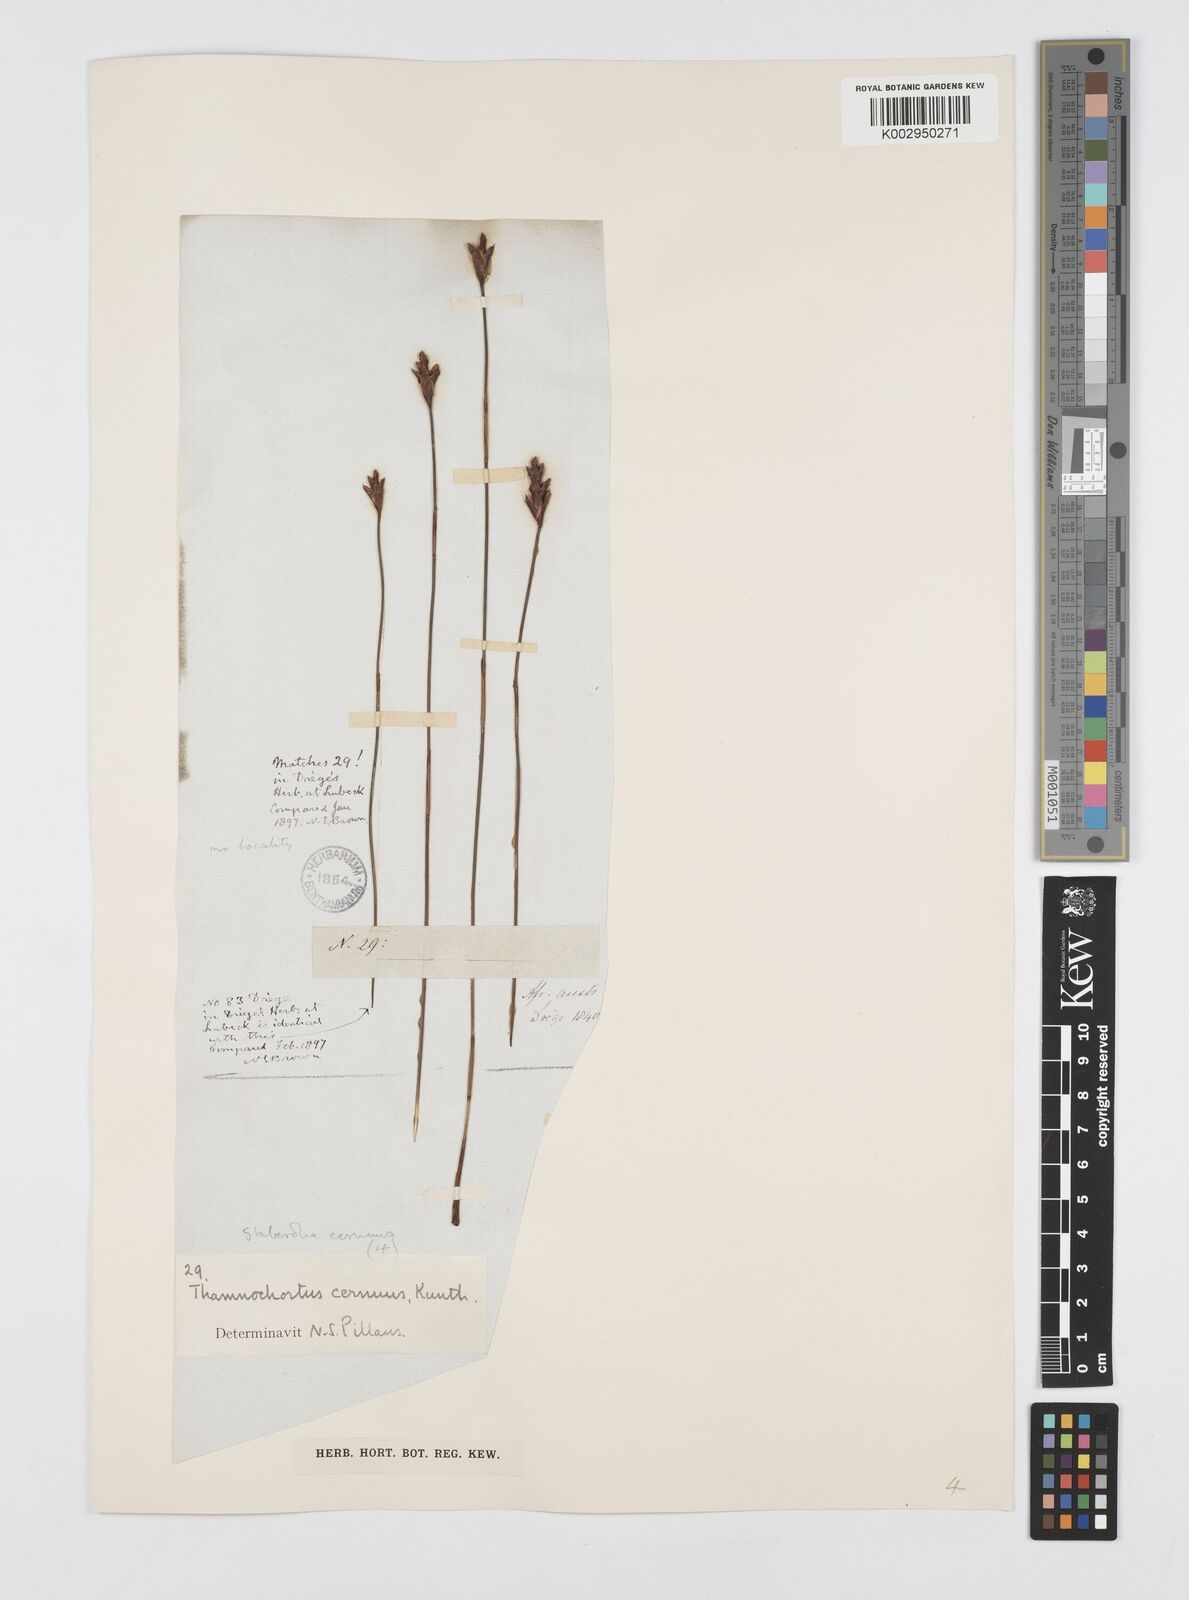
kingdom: Plantae
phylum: Tracheophyta
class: Liliopsida
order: Poales
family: Restionaceae
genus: Staberoha
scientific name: Staberoha cernua
